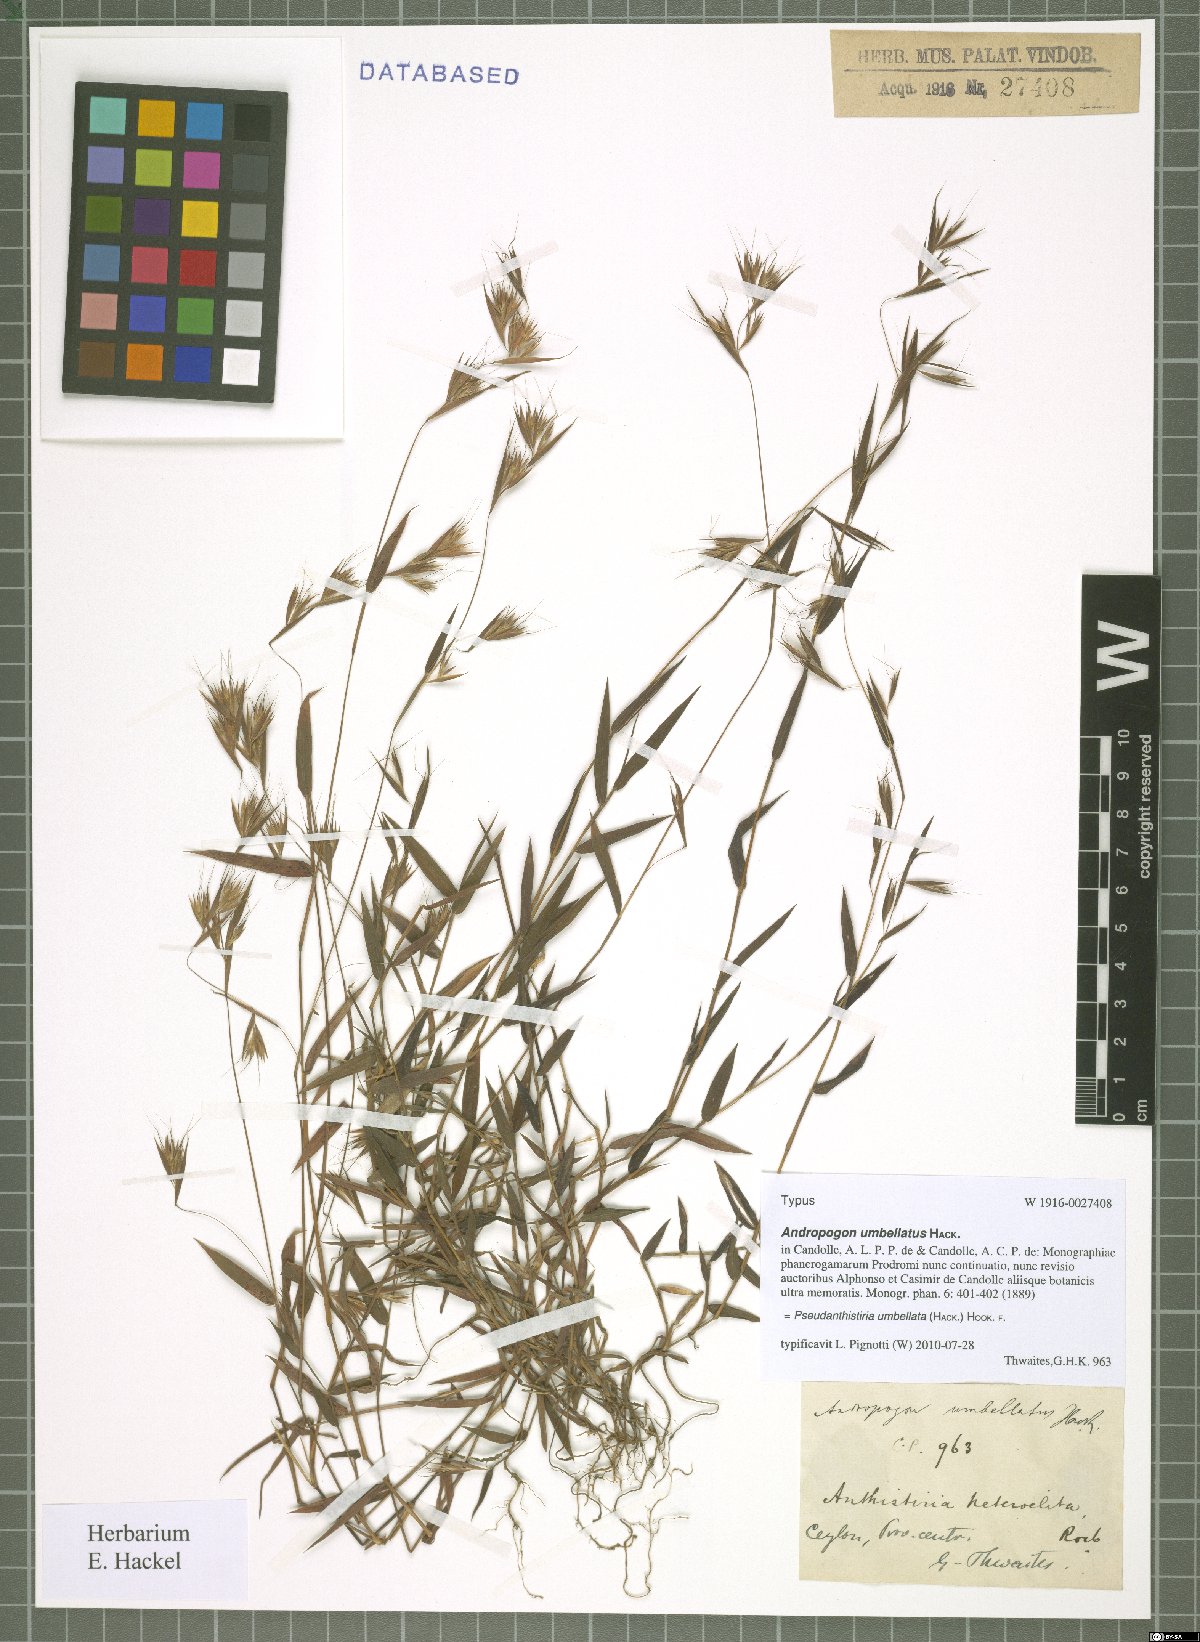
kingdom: Plantae
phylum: Tracheophyta
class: Liliopsida
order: Poales
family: Poaceae
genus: Pseudanthistiria
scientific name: Pseudanthistiria umbellata
